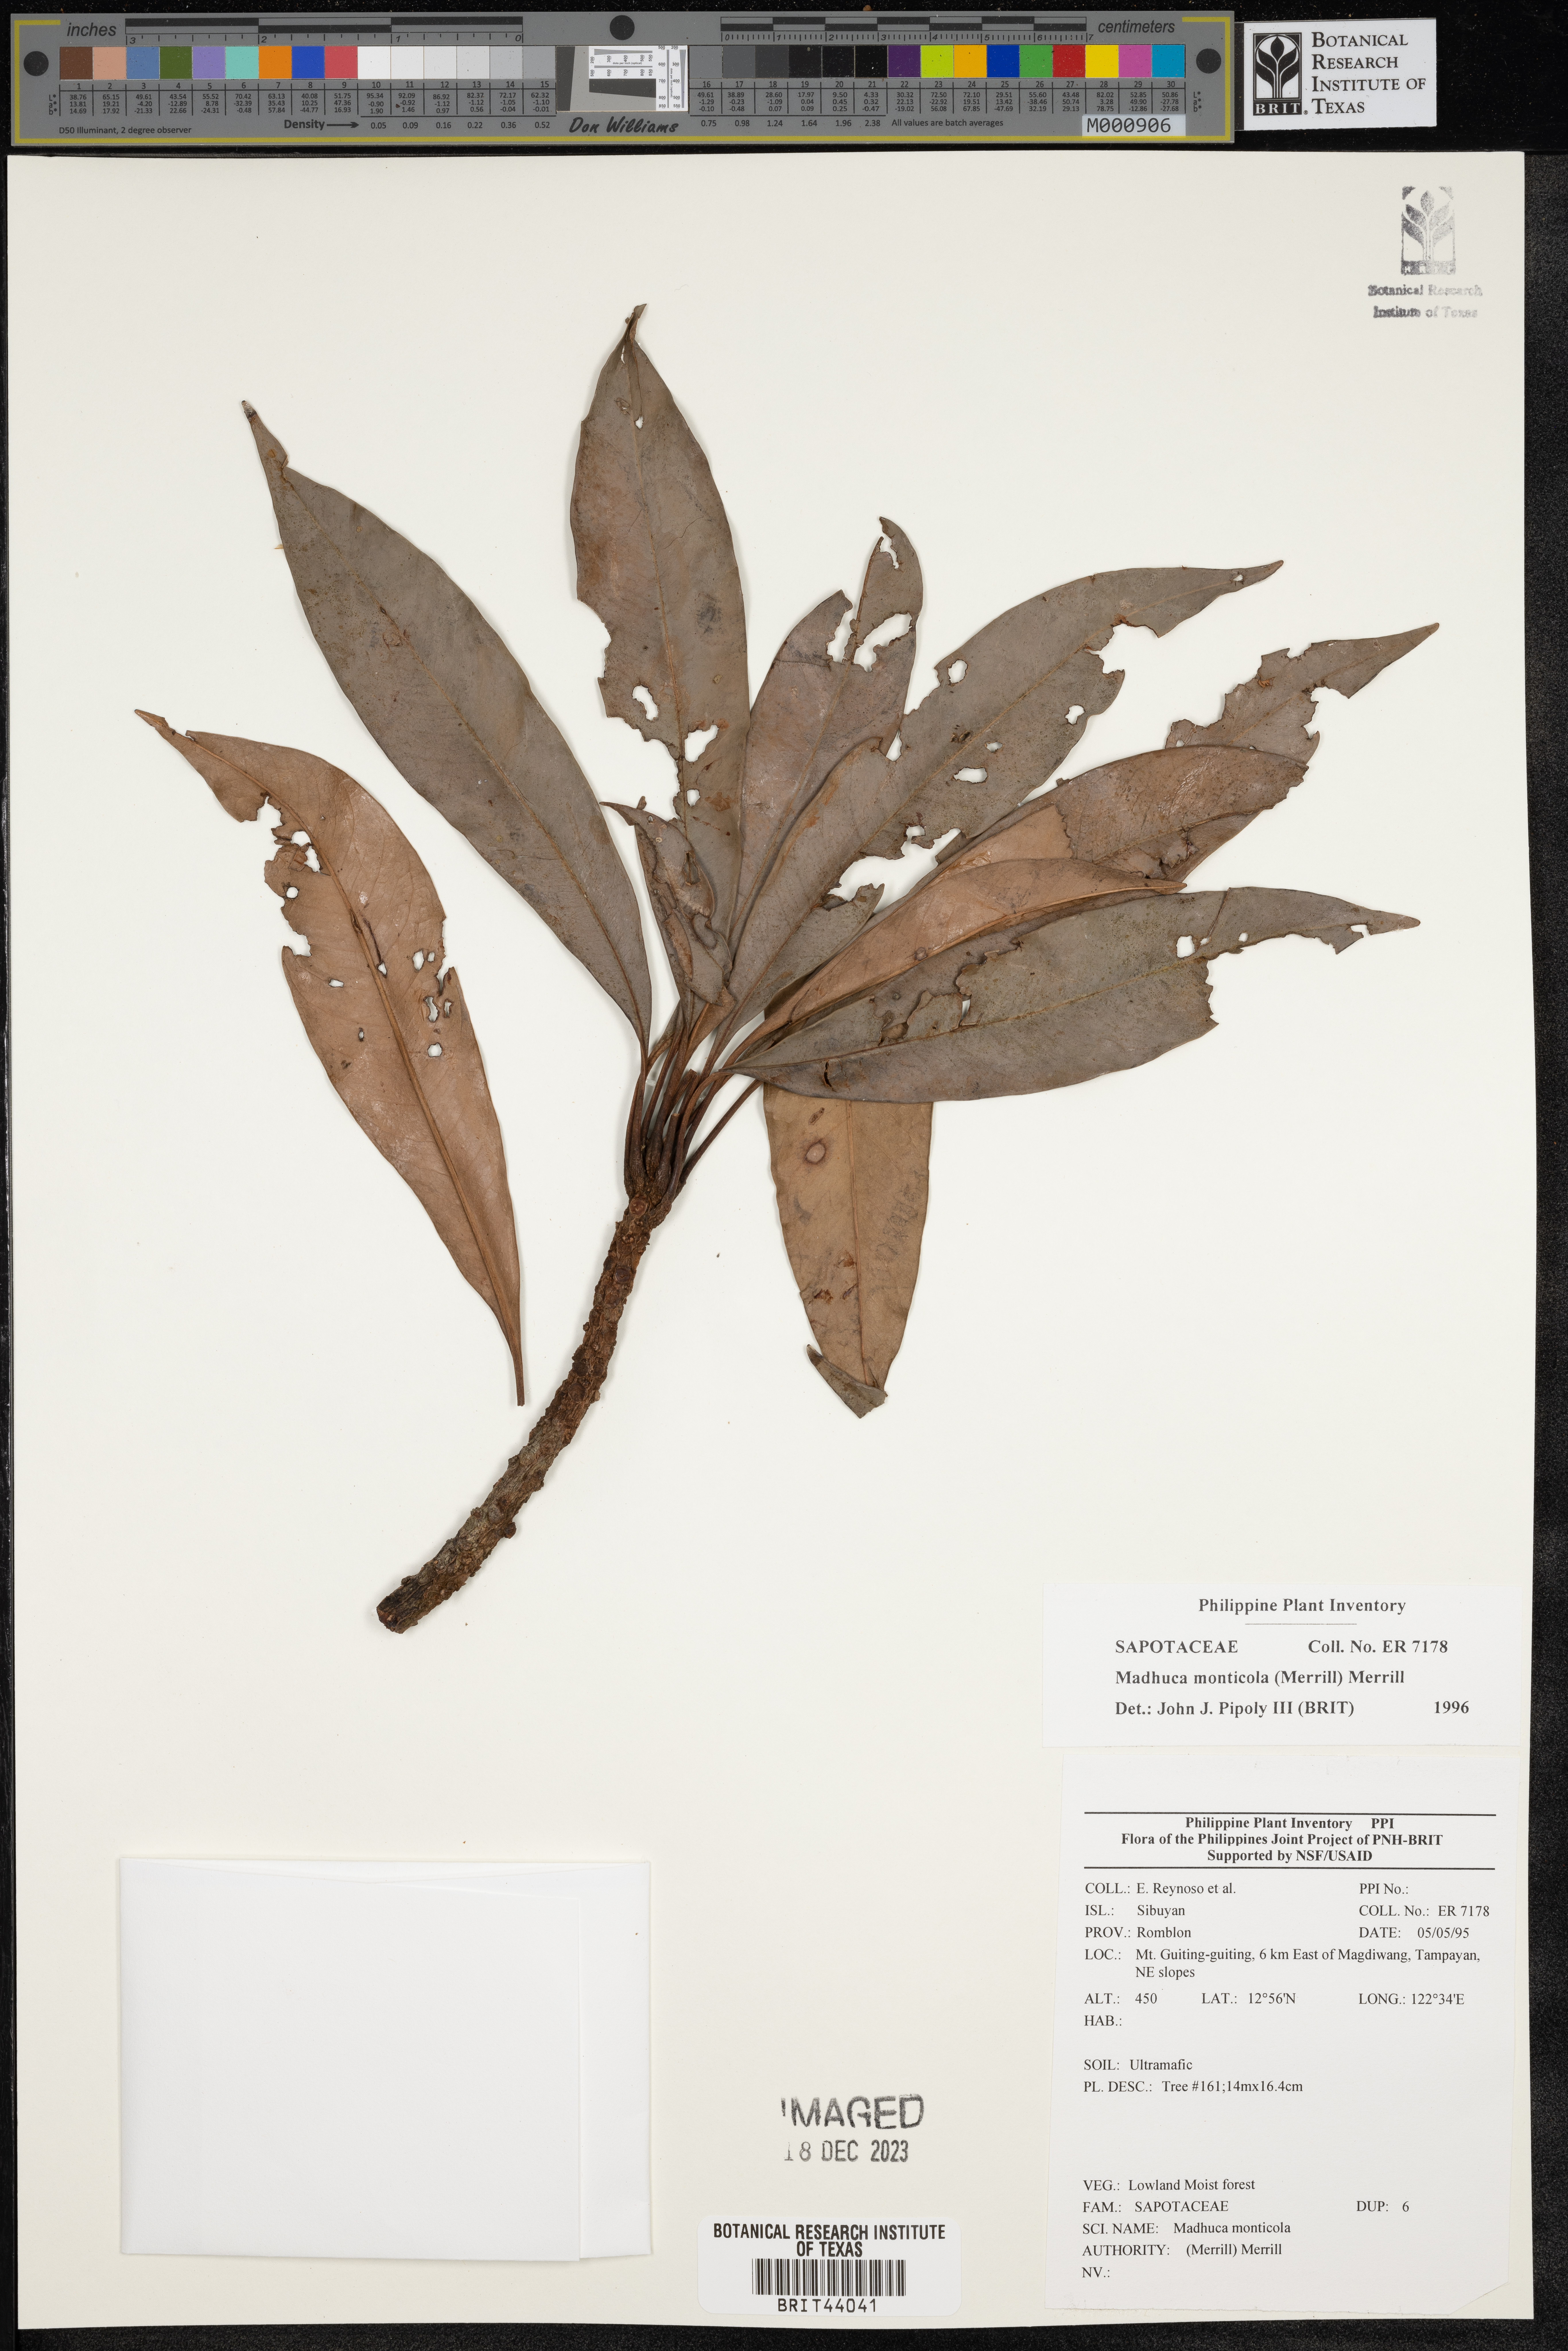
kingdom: Plantae
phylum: Tracheophyta
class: Magnoliopsida
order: Ericales
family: Sapotaceae
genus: Madhuca
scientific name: Madhuca
